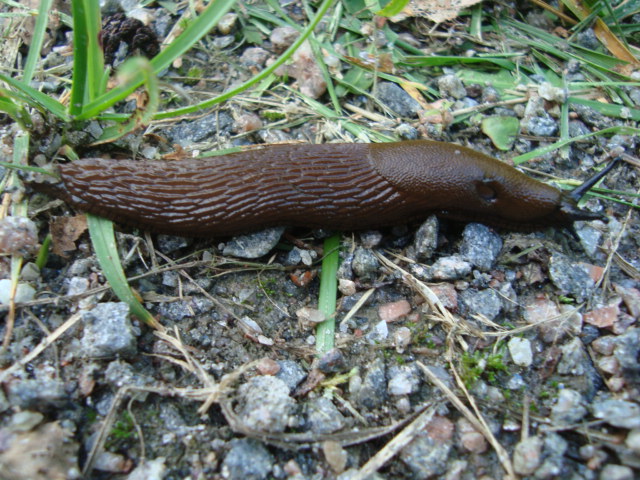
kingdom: Animalia
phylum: Mollusca
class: Gastropoda
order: Stylommatophora
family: Arionidae
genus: Arion
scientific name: Arion vulgaris
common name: Lusitanian slug
